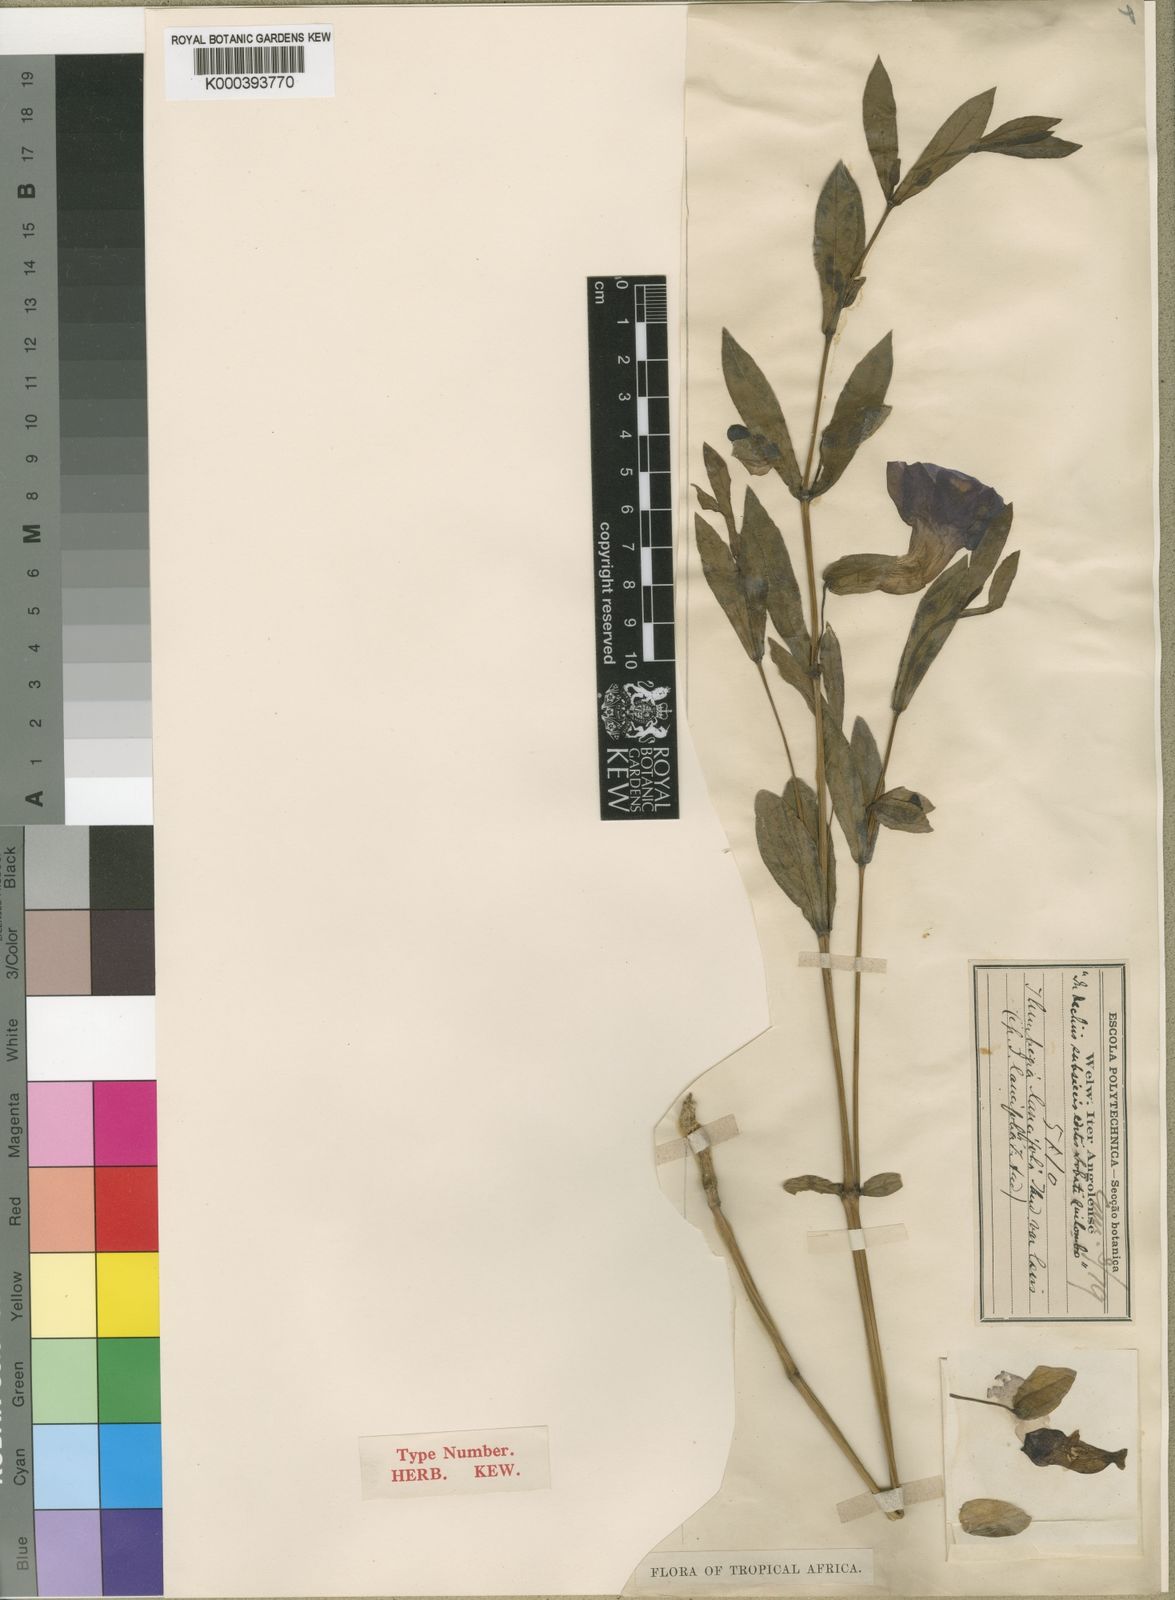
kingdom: Plantae
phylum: Tracheophyta
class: Magnoliopsida
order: Lamiales
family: Acanthaceae
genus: Thunbergia
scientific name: Thunbergia lancifolia
